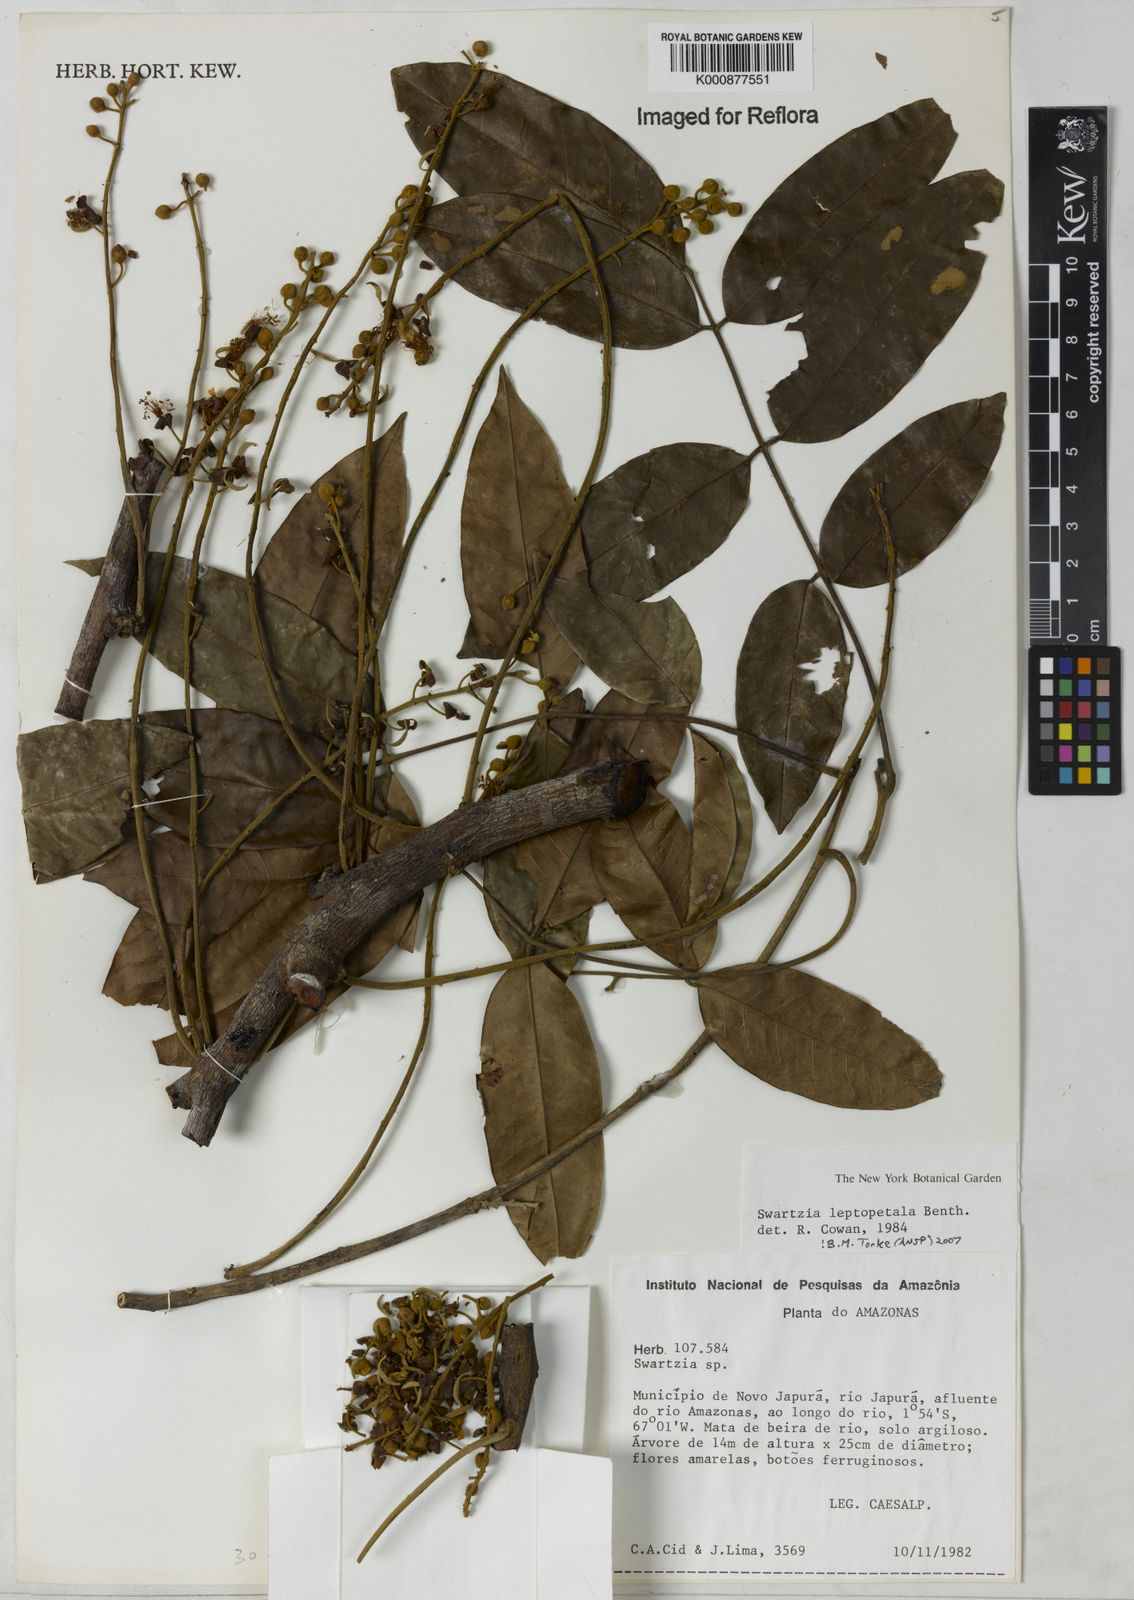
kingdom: Plantae
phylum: Tracheophyta
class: Magnoliopsida
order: Fabales
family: Fabaceae
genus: Swartzia
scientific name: Swartzia leptopetala
